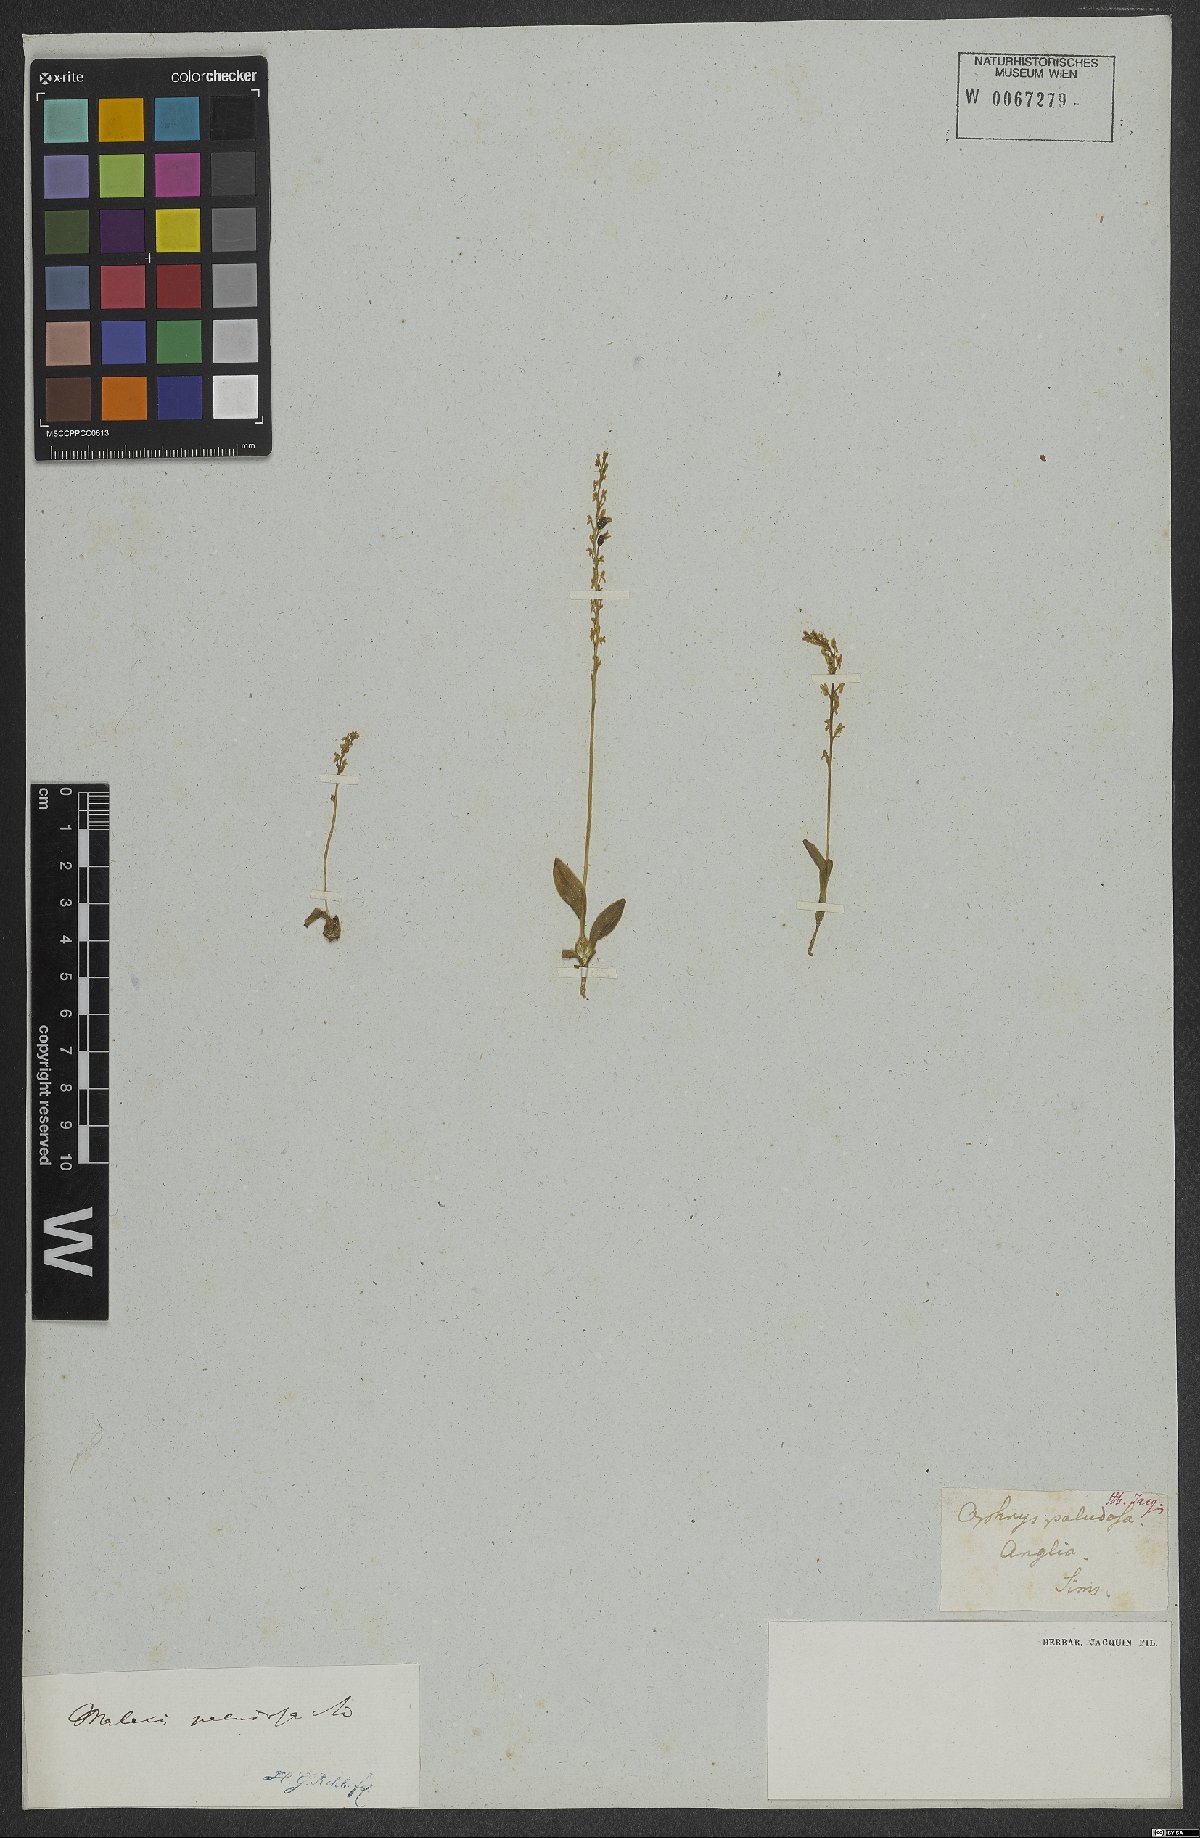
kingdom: Plantae
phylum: Tracheophyta
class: Liliopsida
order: Asparagales
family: Orchidaceae
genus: Hammarbya
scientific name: Hammarbya paludosa
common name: Bog orchid
